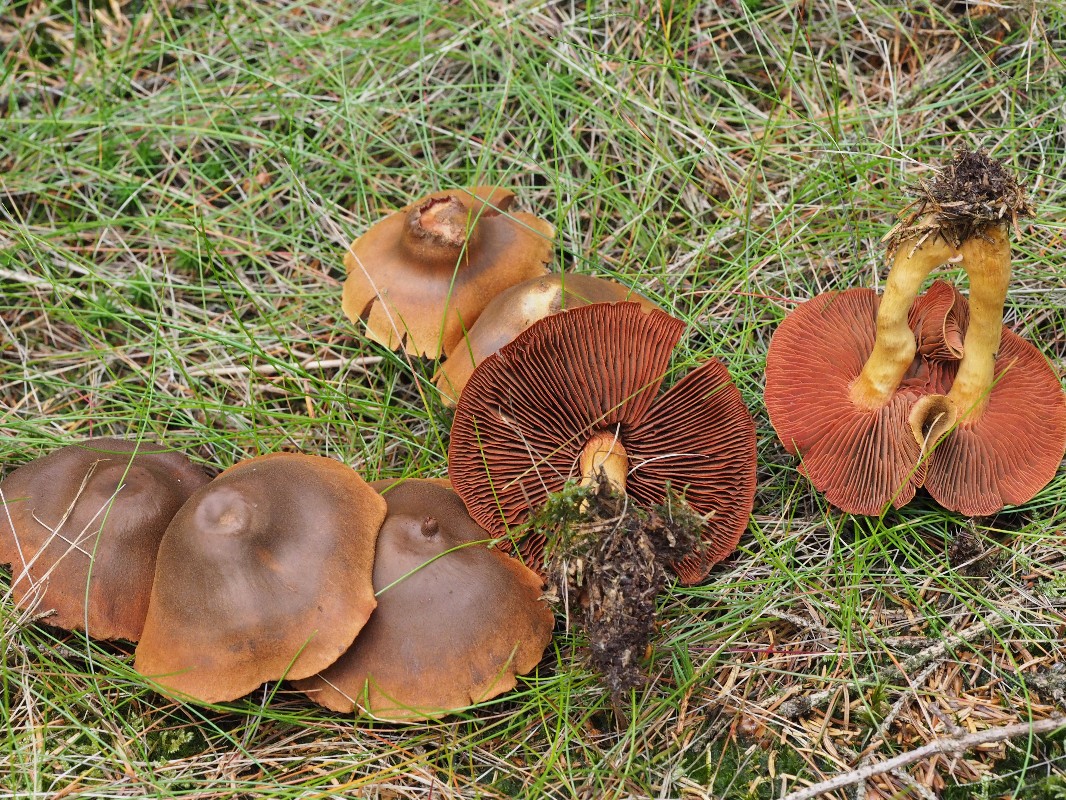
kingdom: Fungi
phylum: Basidiomycota
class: Agaricomycetes
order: Agaricales
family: Cortinariaceae
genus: Cortinarius
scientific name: Cortinarius
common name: cinnoberbladet slørhat
